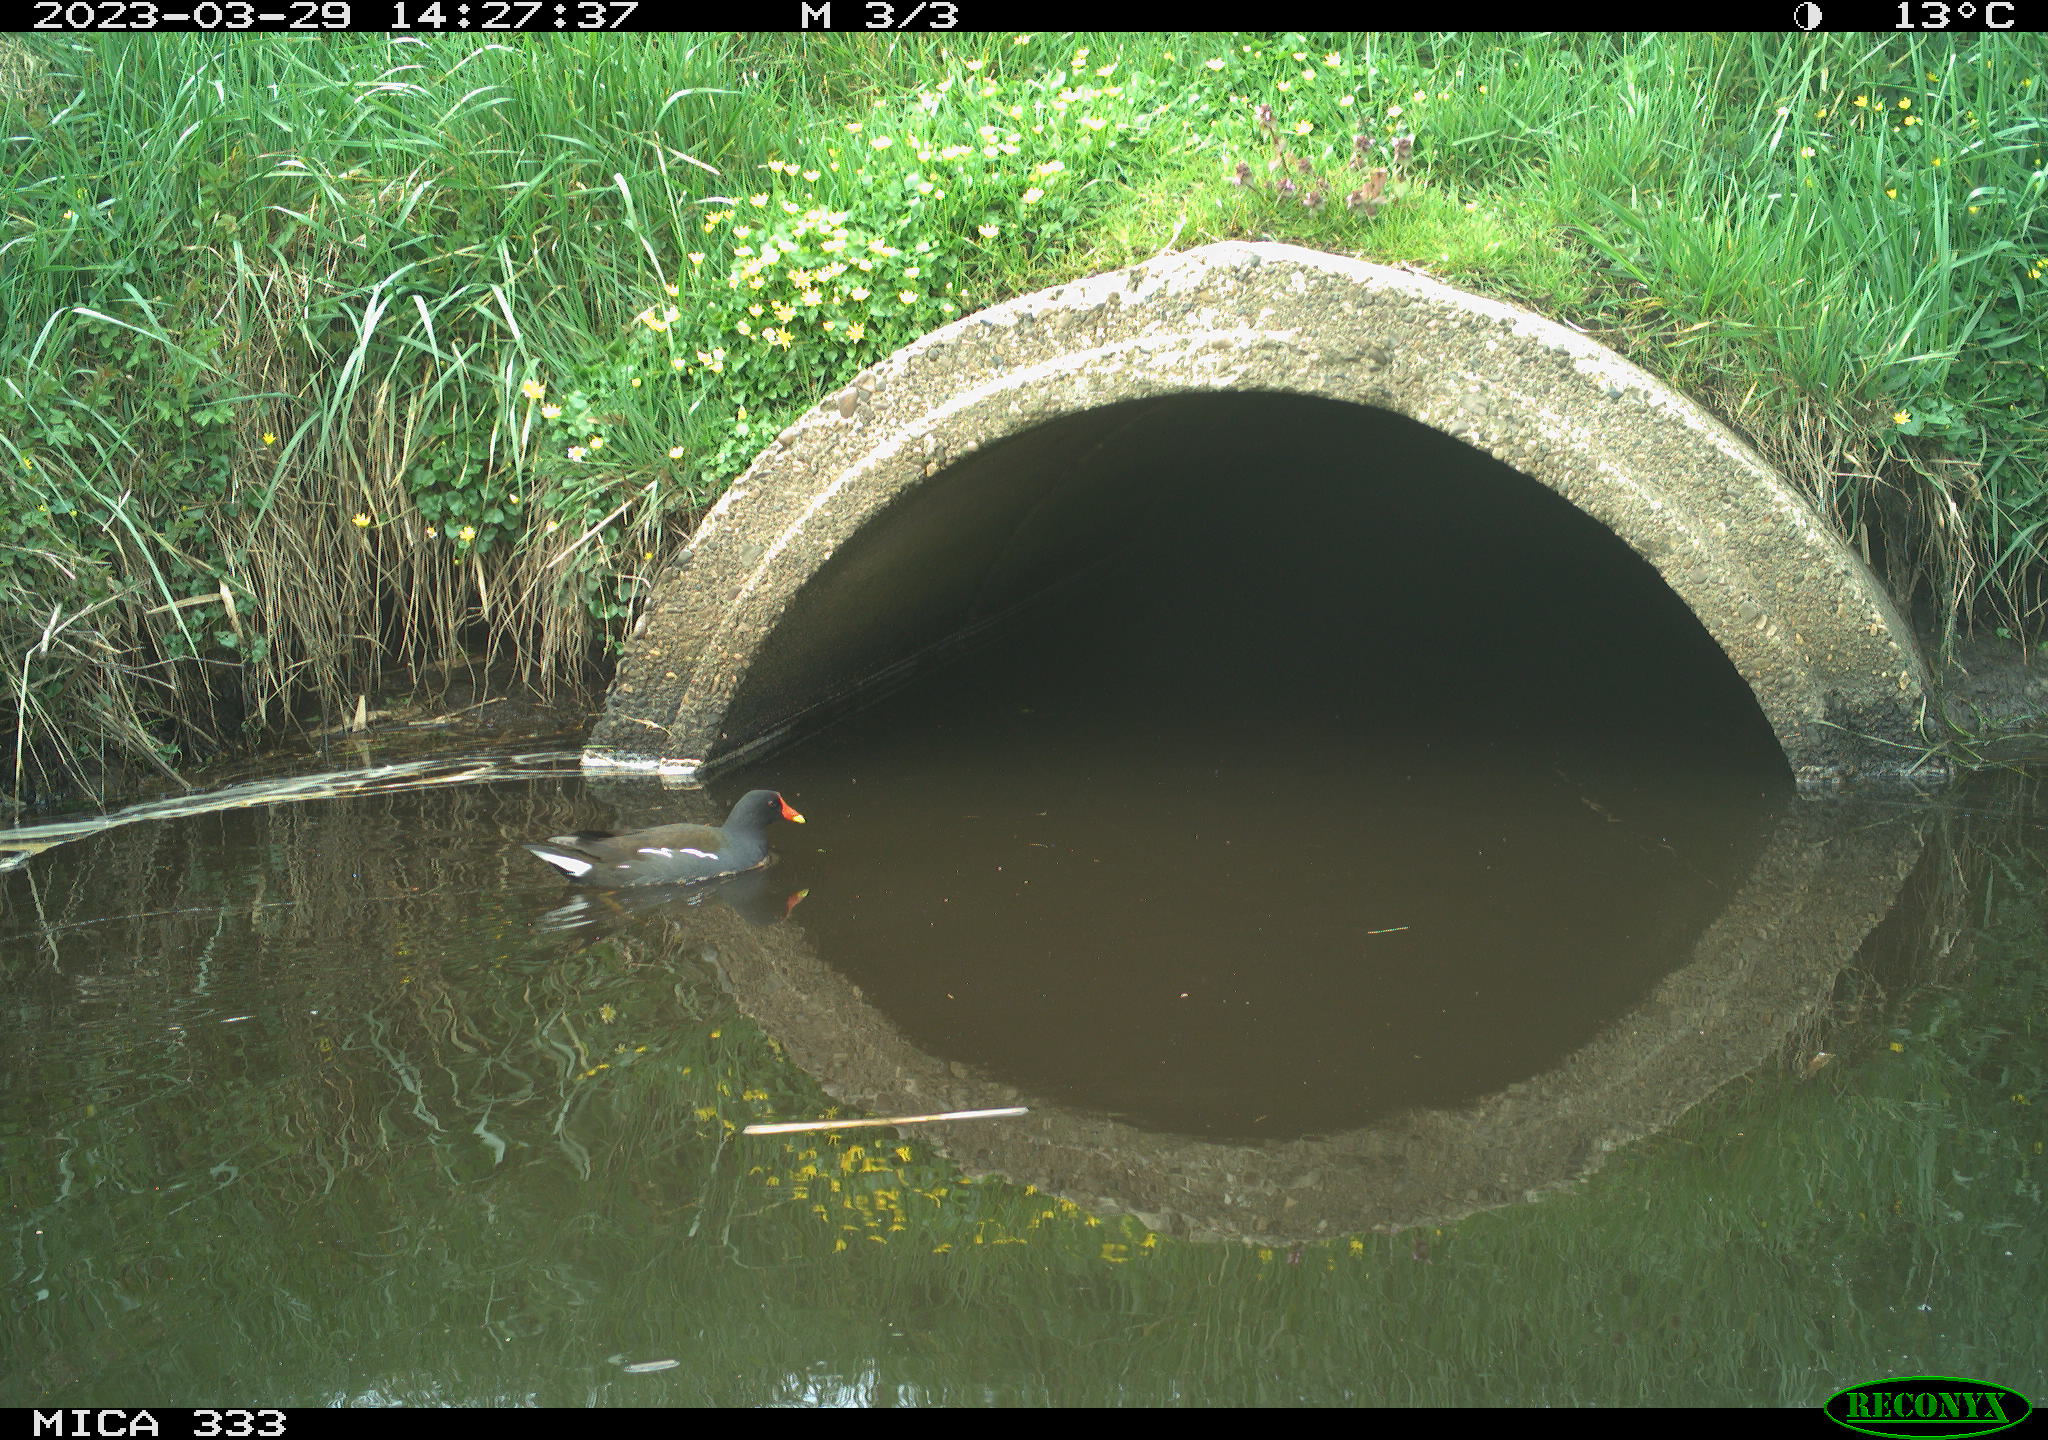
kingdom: Animalia
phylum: Chordata
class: Aves
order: Gruiformes
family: Rallidae
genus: Gallinula
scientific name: Gallinula chloropus
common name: Common moorhen
